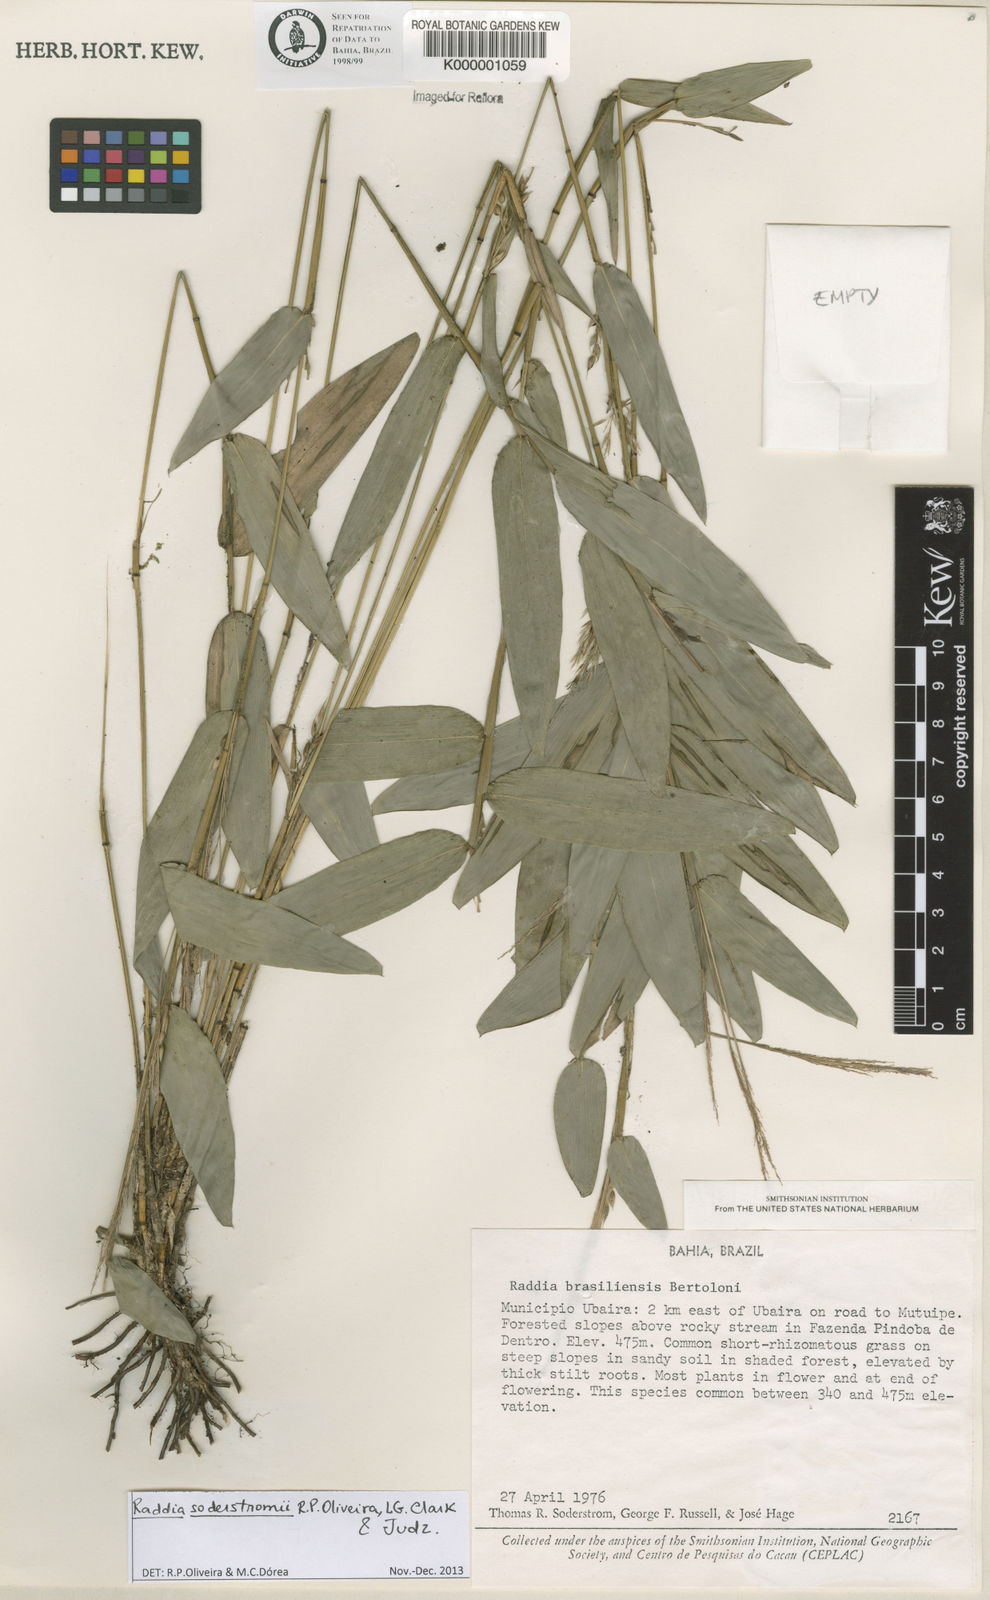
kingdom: Plantae
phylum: Tracheophyta
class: Liliopsida
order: Poales
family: Poaceae
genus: Raddia
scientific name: Raddia brasiliensis
